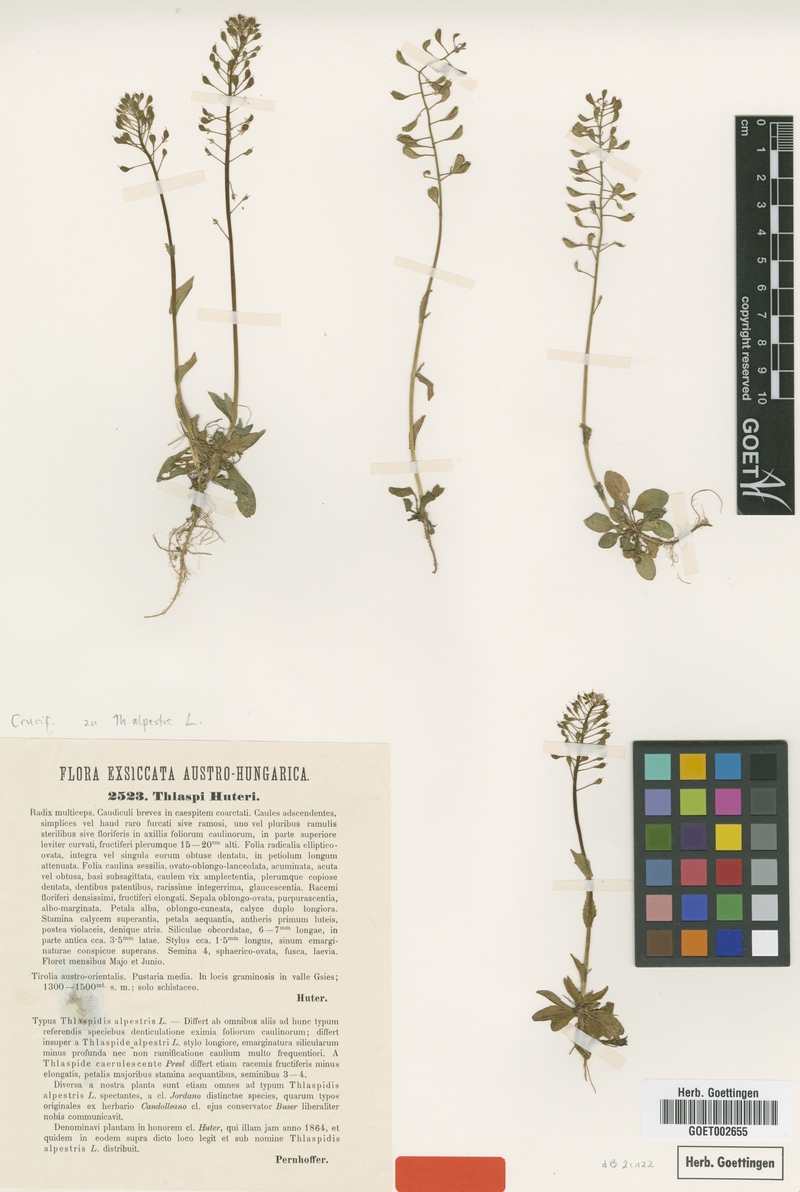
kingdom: Plantae
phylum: Tracheophyta
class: Magnoliopsida
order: Brassicales
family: Brassicaceae
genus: Noccaea
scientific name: Noccaea brachypetala
